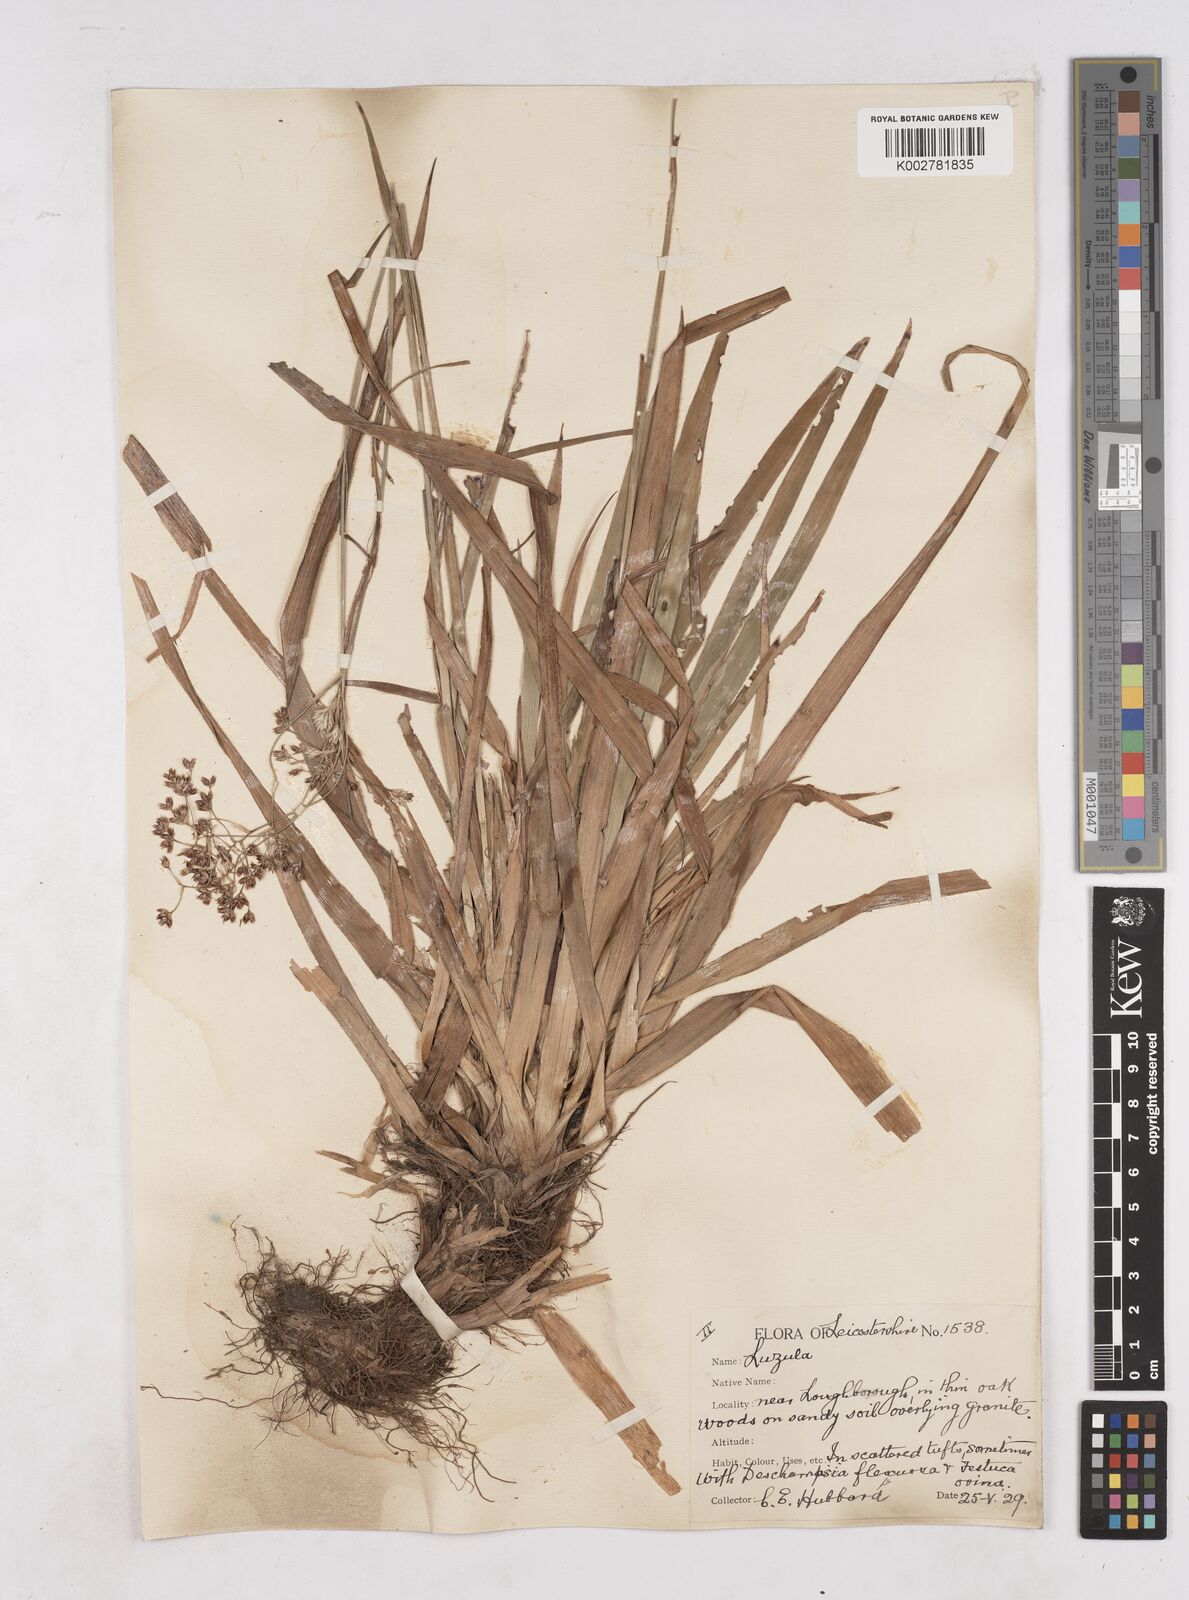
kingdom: Plantae
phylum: Tracheophyta
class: Liliopsida
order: Poales
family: Juncaceae
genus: Luzula
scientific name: Luzula sylvatica
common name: Great wood-rush
